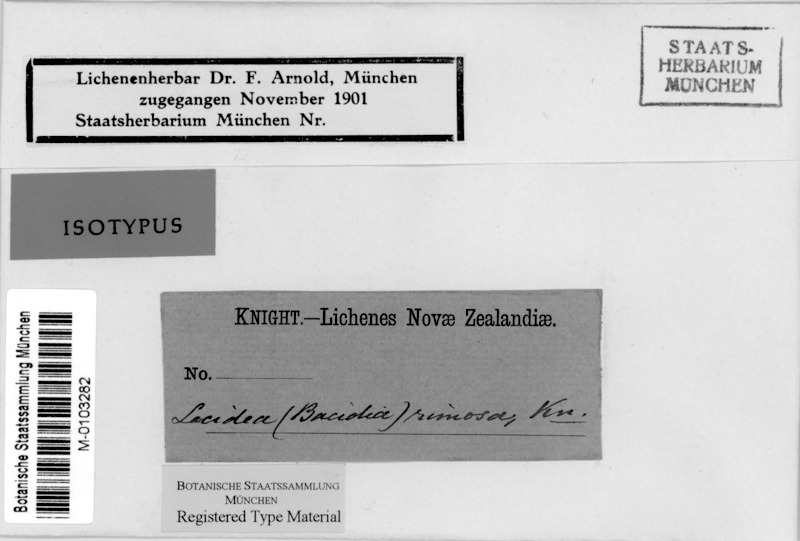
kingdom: Fungi
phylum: Ascomycota
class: Lecanoromycetes
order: Lecanorales
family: Ramalinaceae
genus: Bacidia
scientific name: Bacidia laurocerasi
